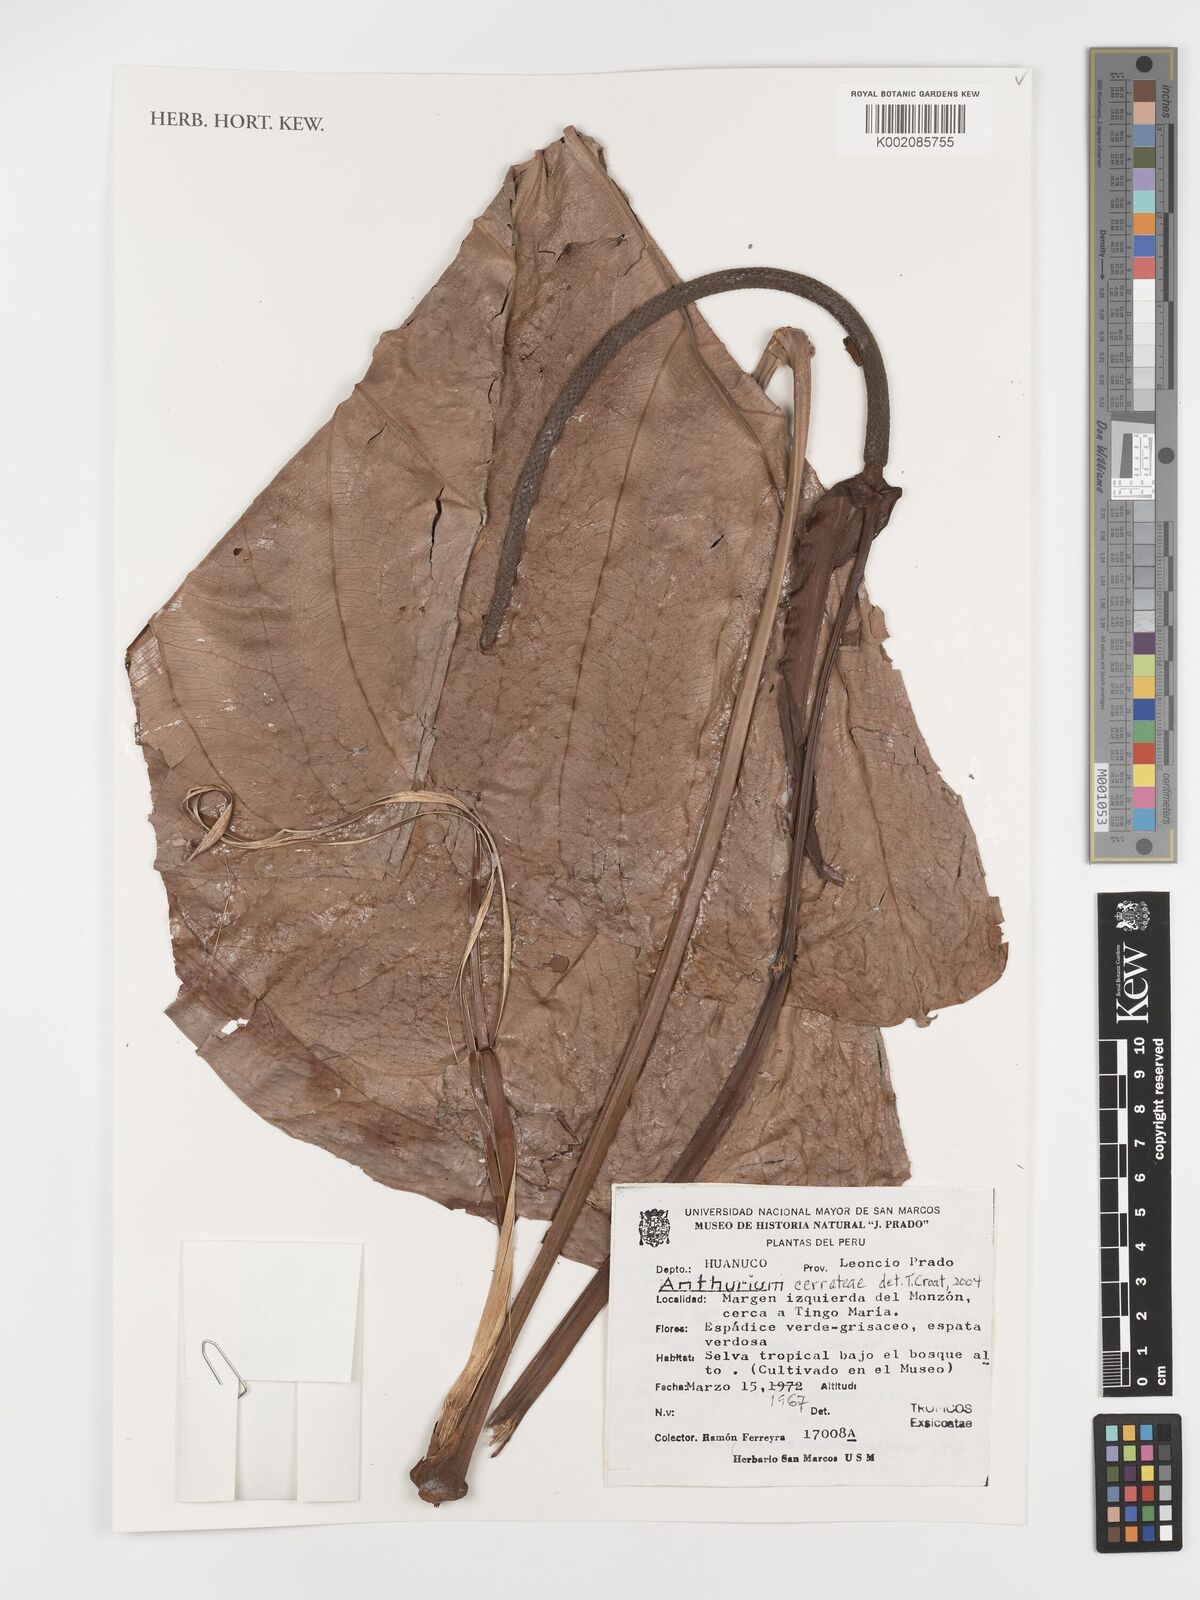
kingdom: Plantae
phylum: Tracheophyta
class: Liliopsida
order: Alismatales
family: Araceae
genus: Anthurium
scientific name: Anthurium cerrateae
